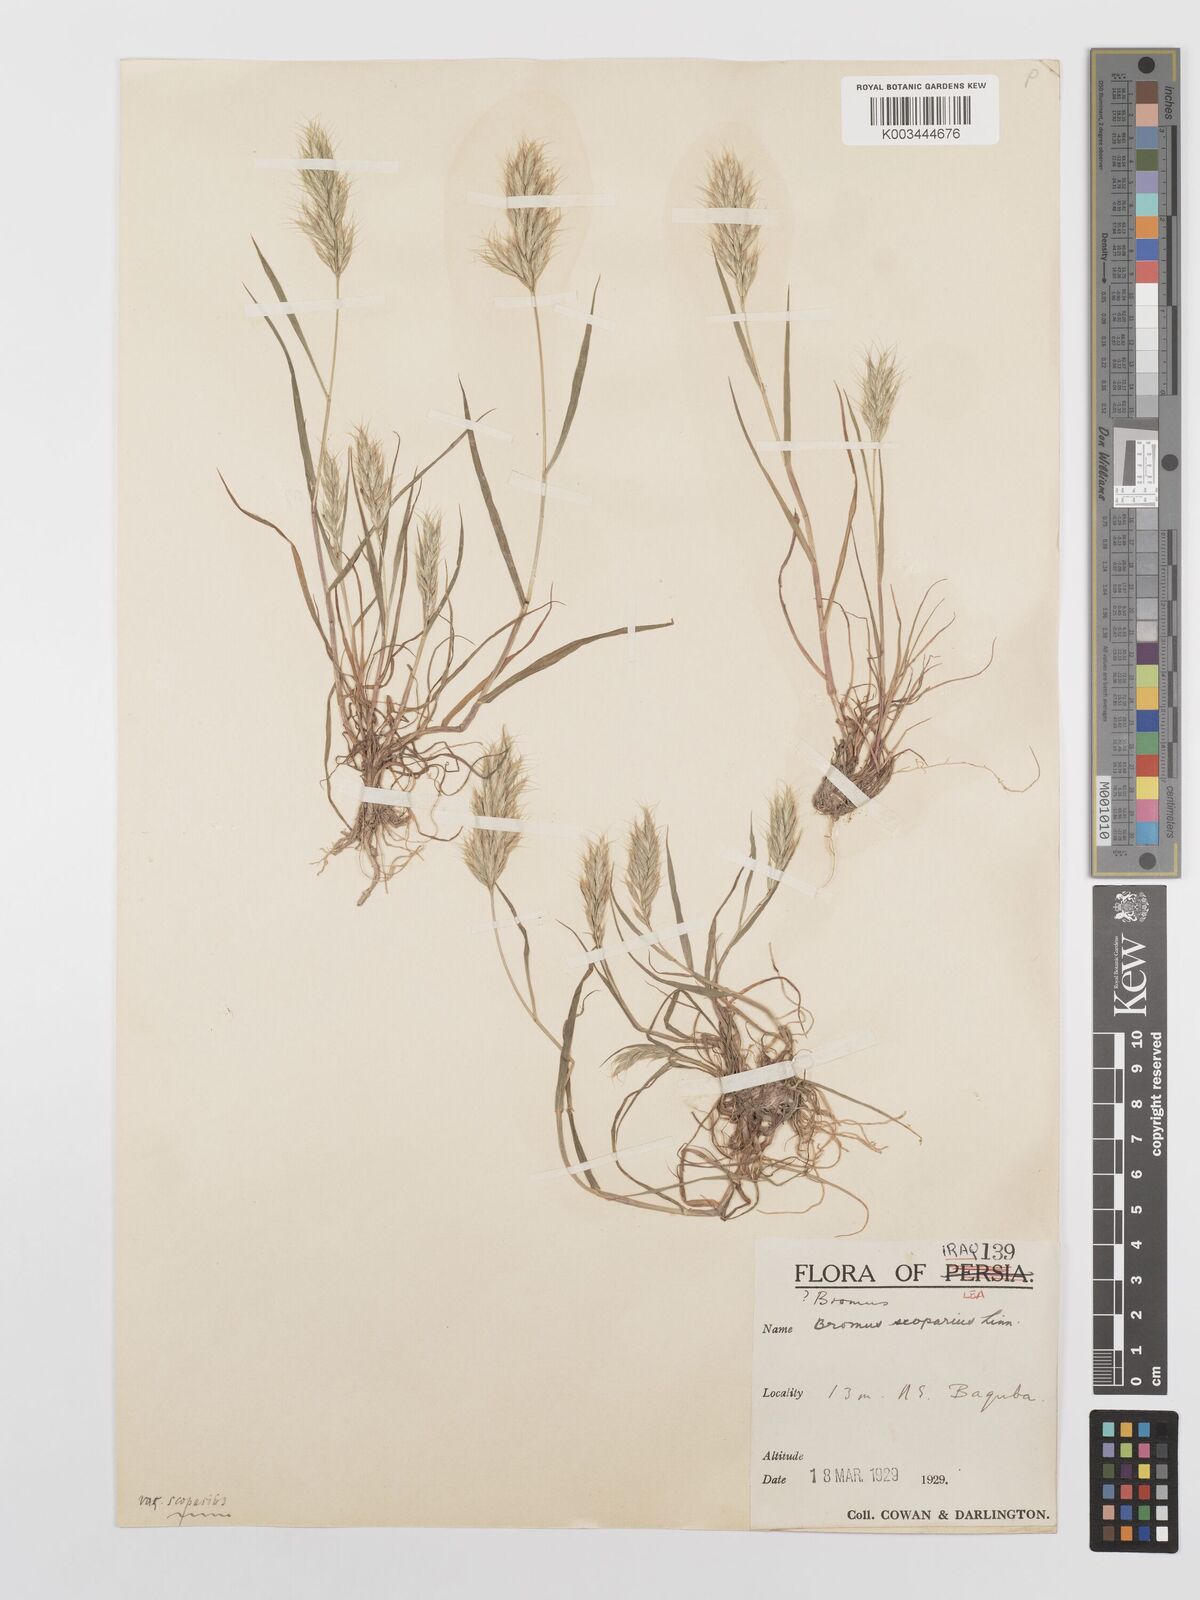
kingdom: Plantae
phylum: Tracheophyta
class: Liliopsida
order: Poales
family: Poaceae
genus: Bromus
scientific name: Bromus scoparius
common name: Broom brome
